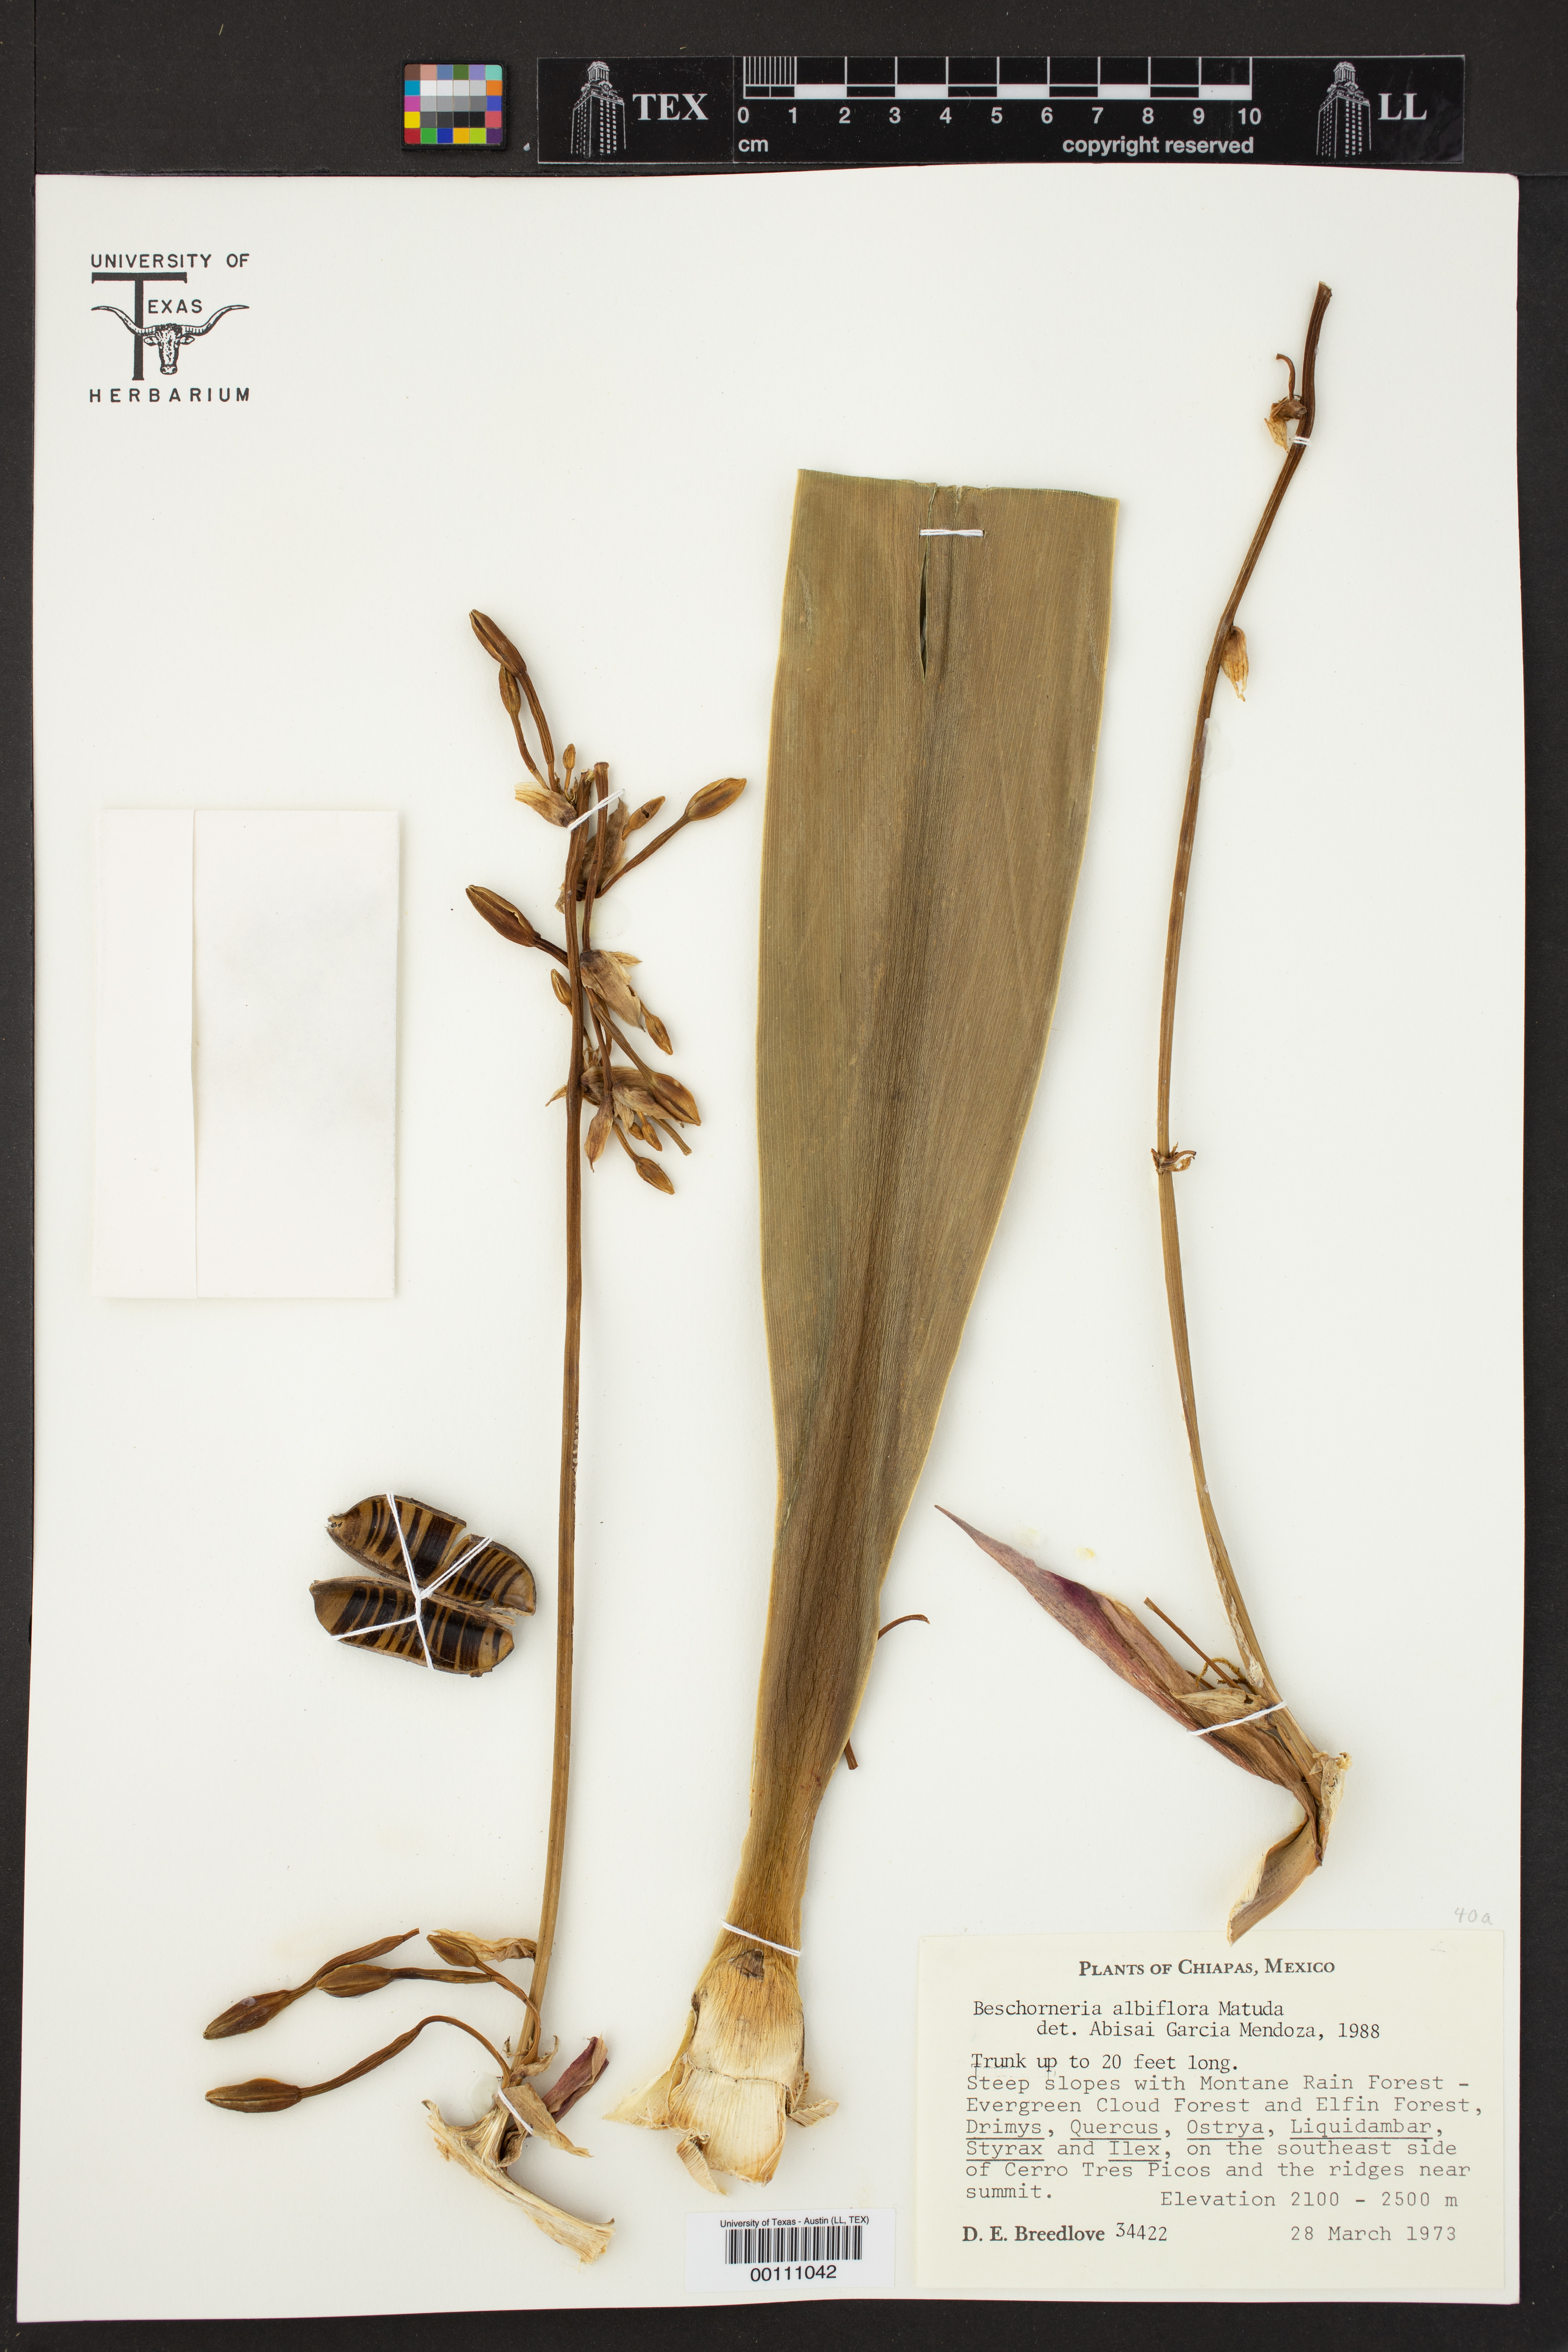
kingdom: Plantae
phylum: Tracheophyta
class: Liliopsida
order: Asparagales
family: Asparagaceae
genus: Beschorneria
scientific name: Beschorneria albiflora
